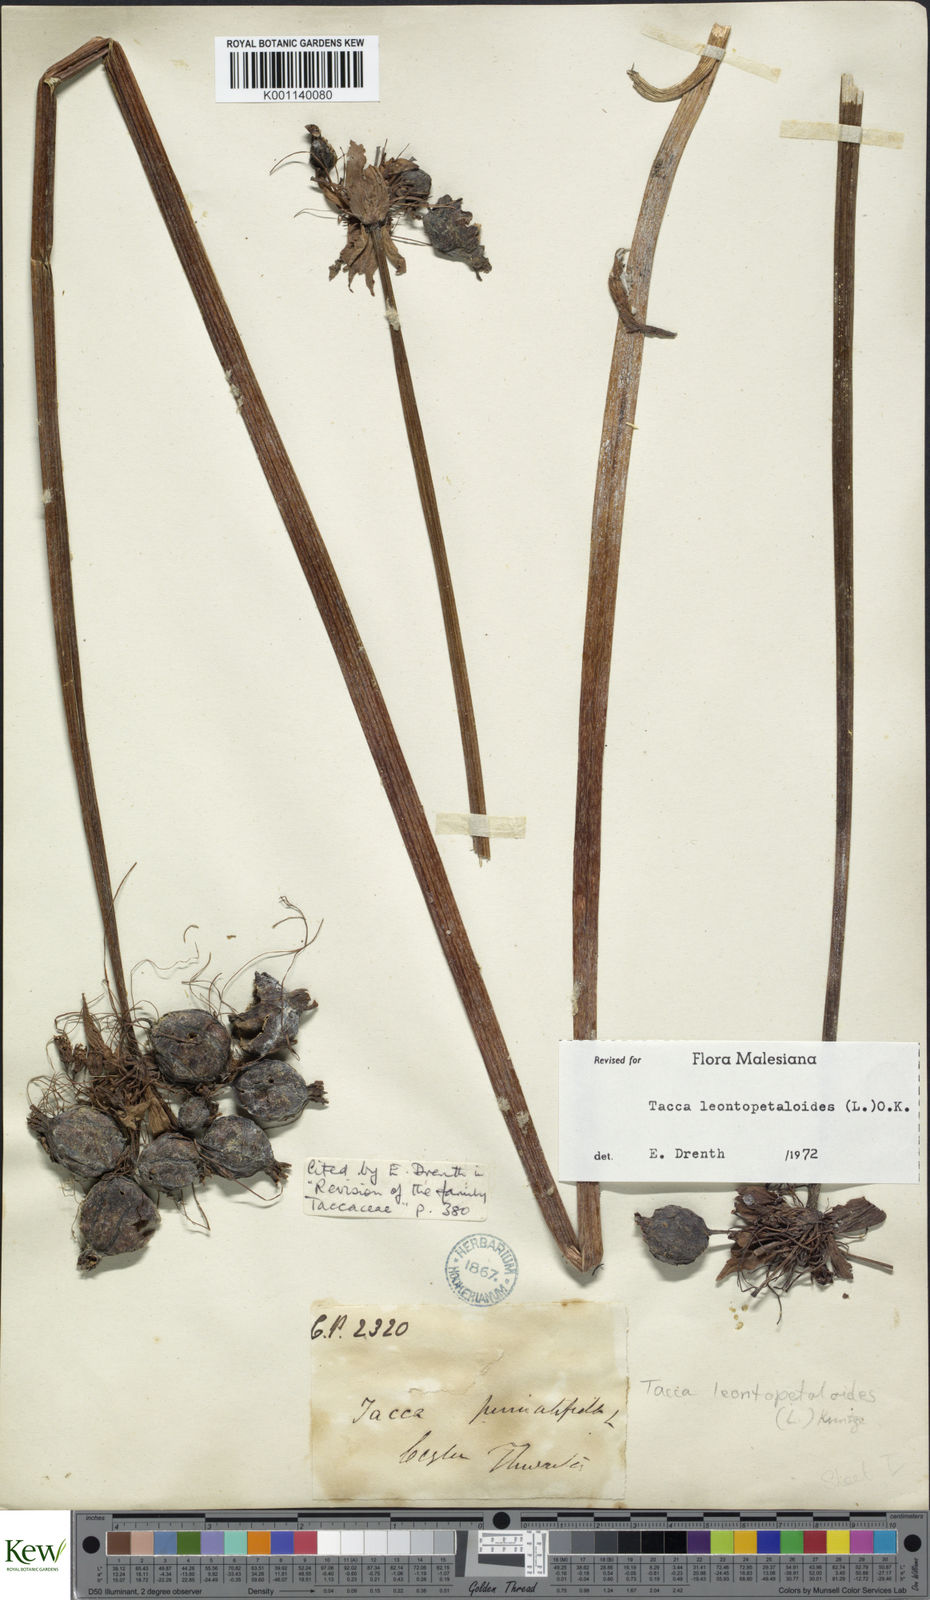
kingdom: Plantae
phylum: Tracheophyta
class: Liliopsida
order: Dioscoreales
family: Dioscoreaceae
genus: Tacca
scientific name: Tacca leontopetaloides
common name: Arrowroot
